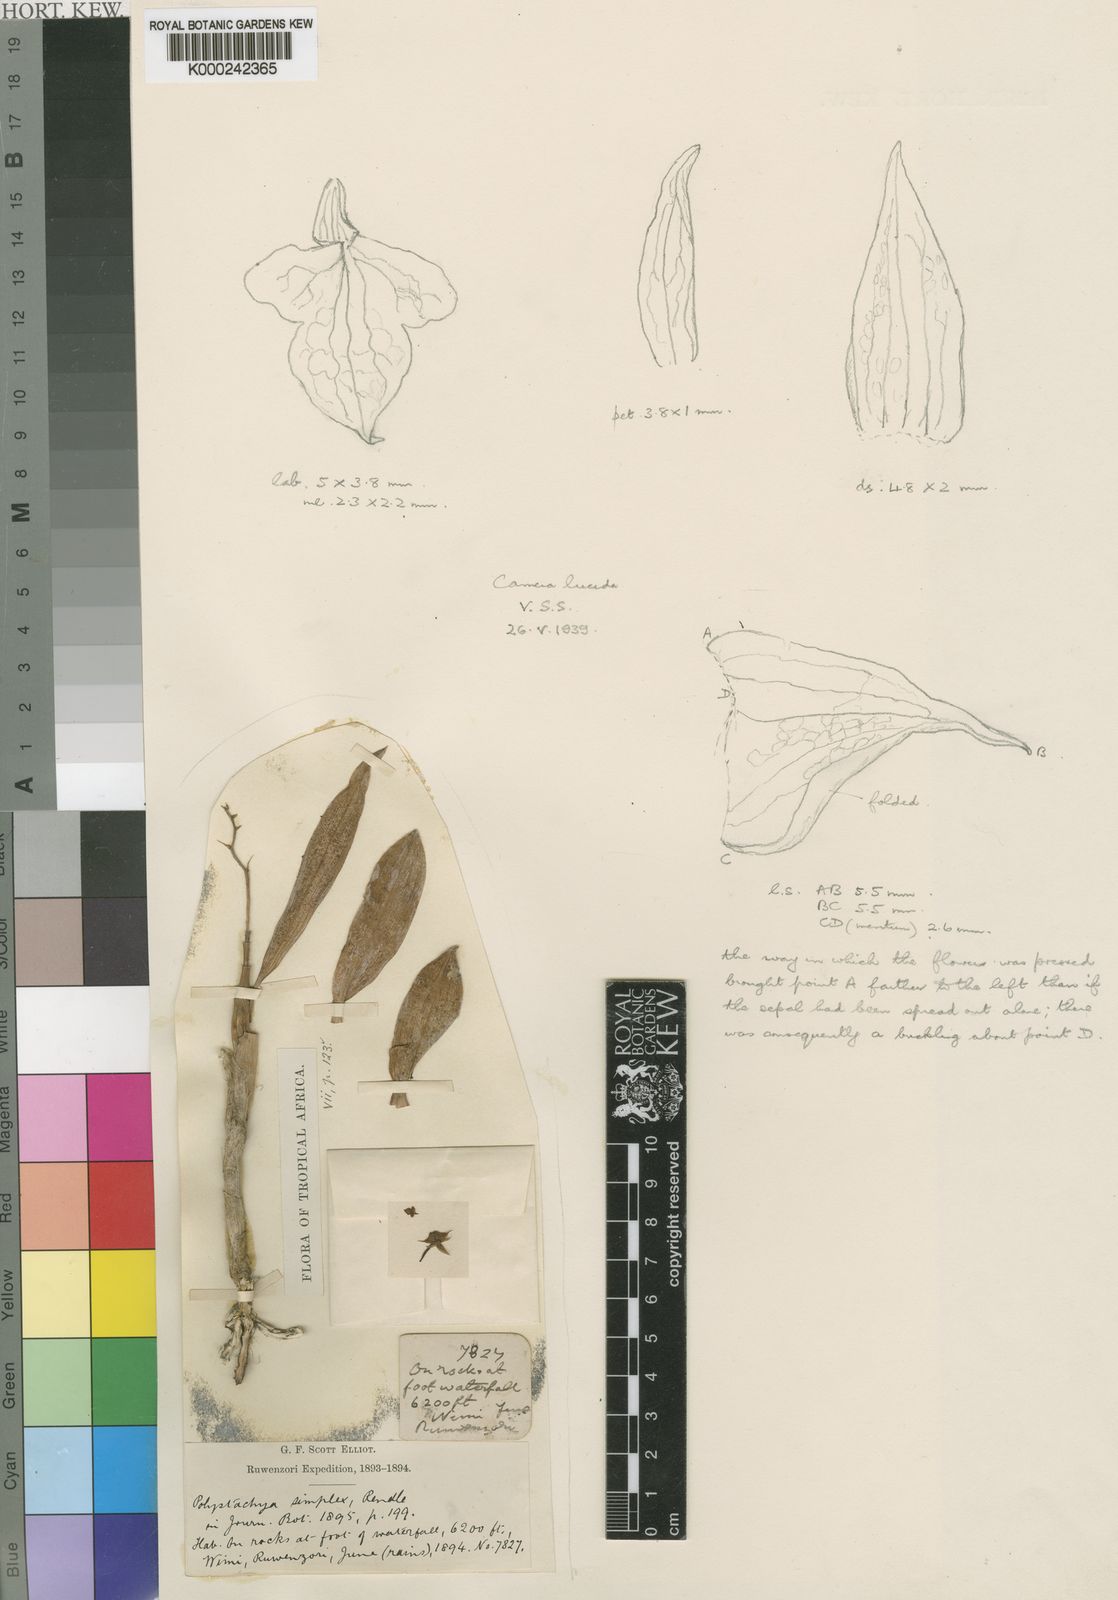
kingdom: Plantae
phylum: Tracheophyta
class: Liliopsida
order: Asparagales
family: Orchidaceae
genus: Polystachya
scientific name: Polystachya simplex
